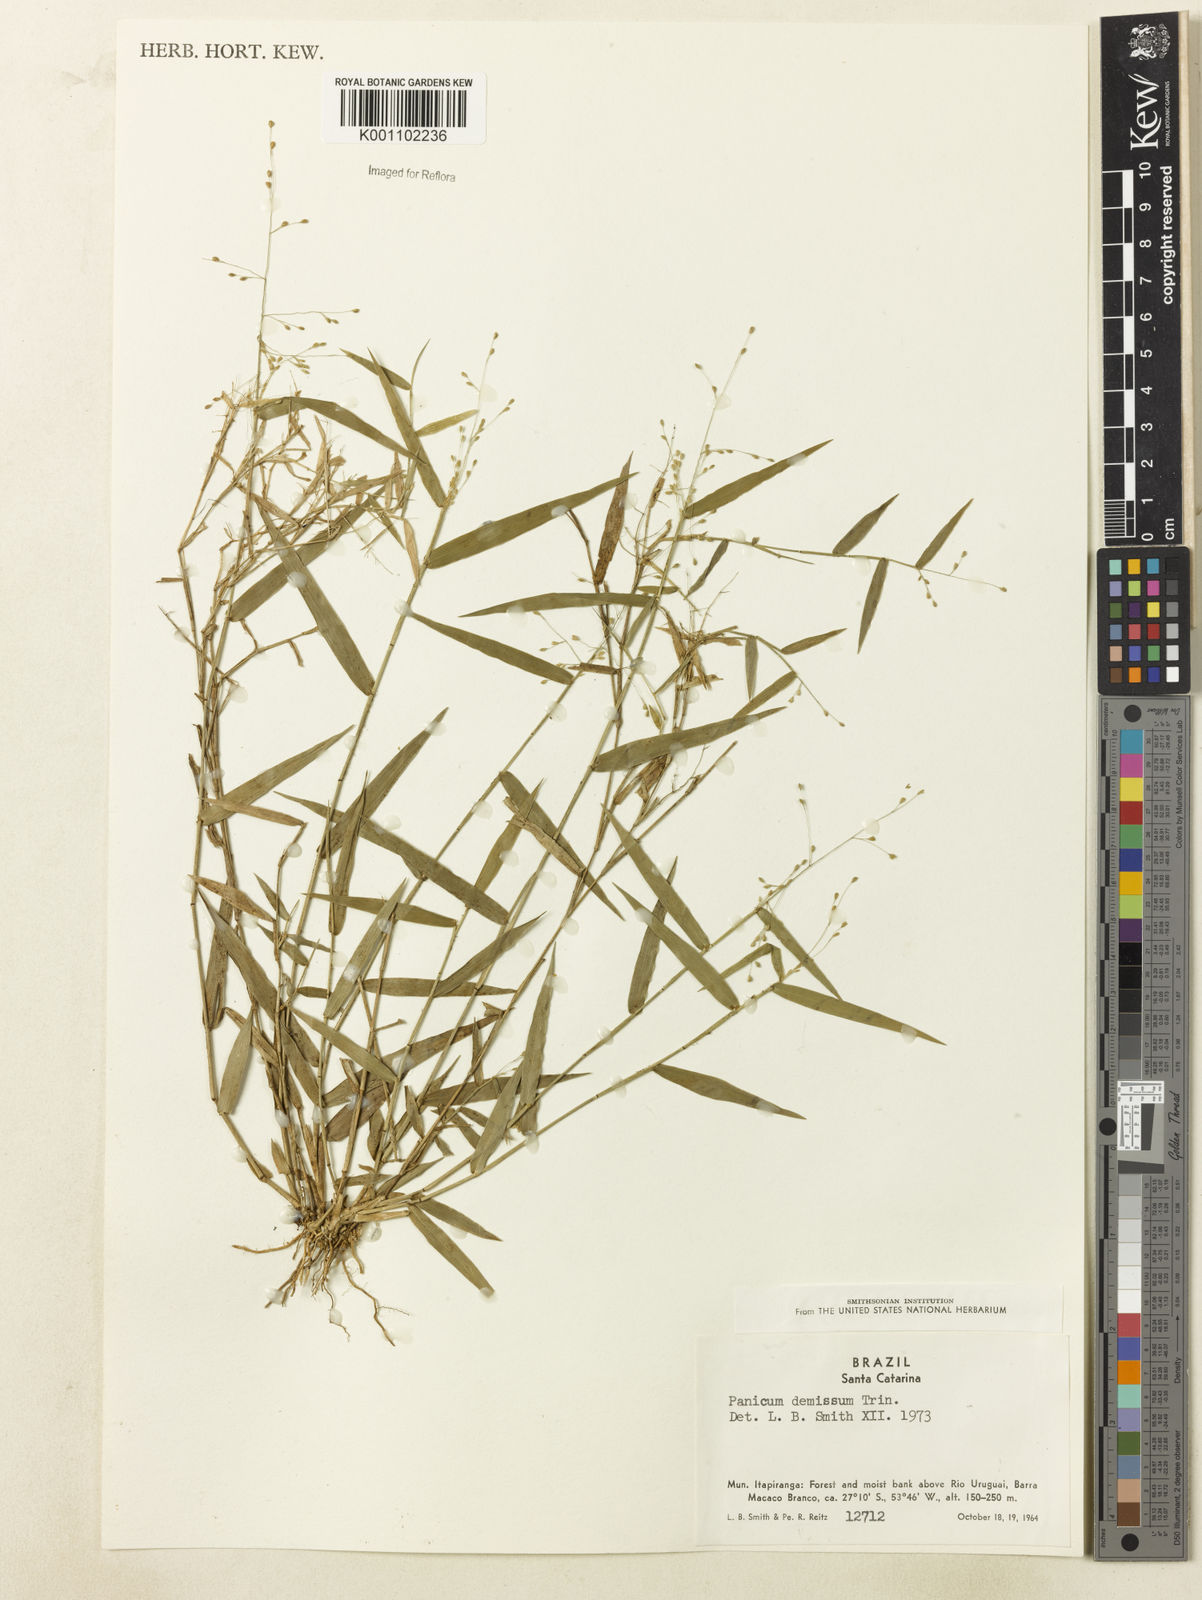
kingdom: Plantae
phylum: Tracheophyta
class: Liliopsida
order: Poales
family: Poaceae
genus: Dichanthelium
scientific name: Dichanthelium sabulorum
